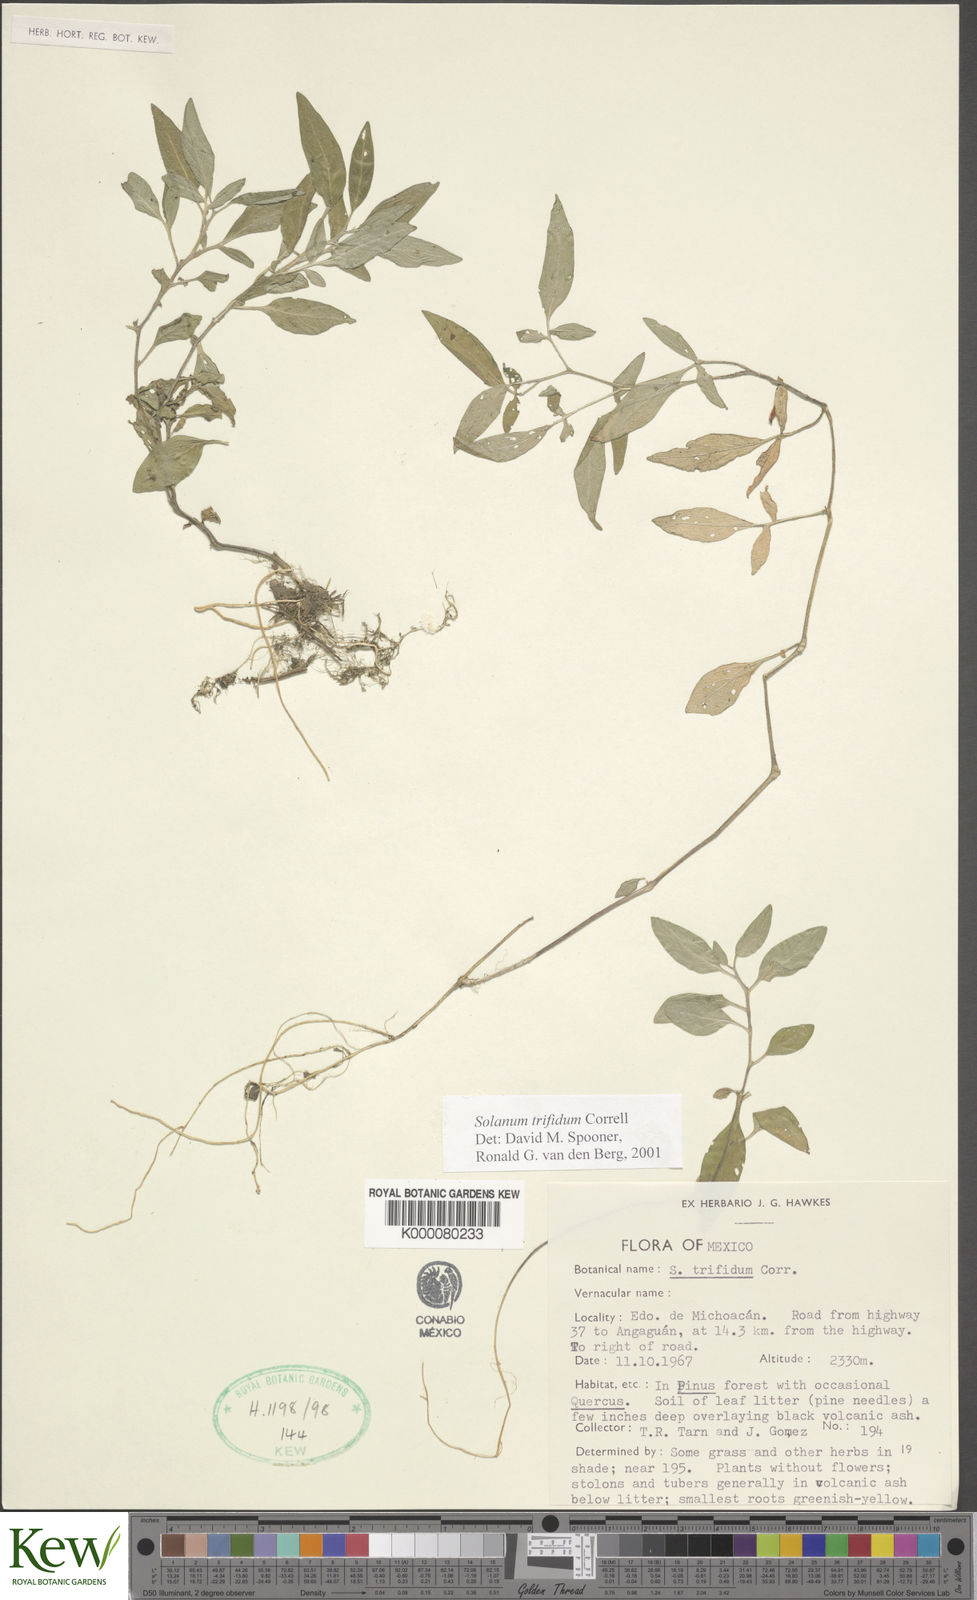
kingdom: Plantae
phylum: Tracheophyta
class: Magnoliopsida
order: Solanales
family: Solanaceae
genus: Solanum
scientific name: Solanum trifidum
